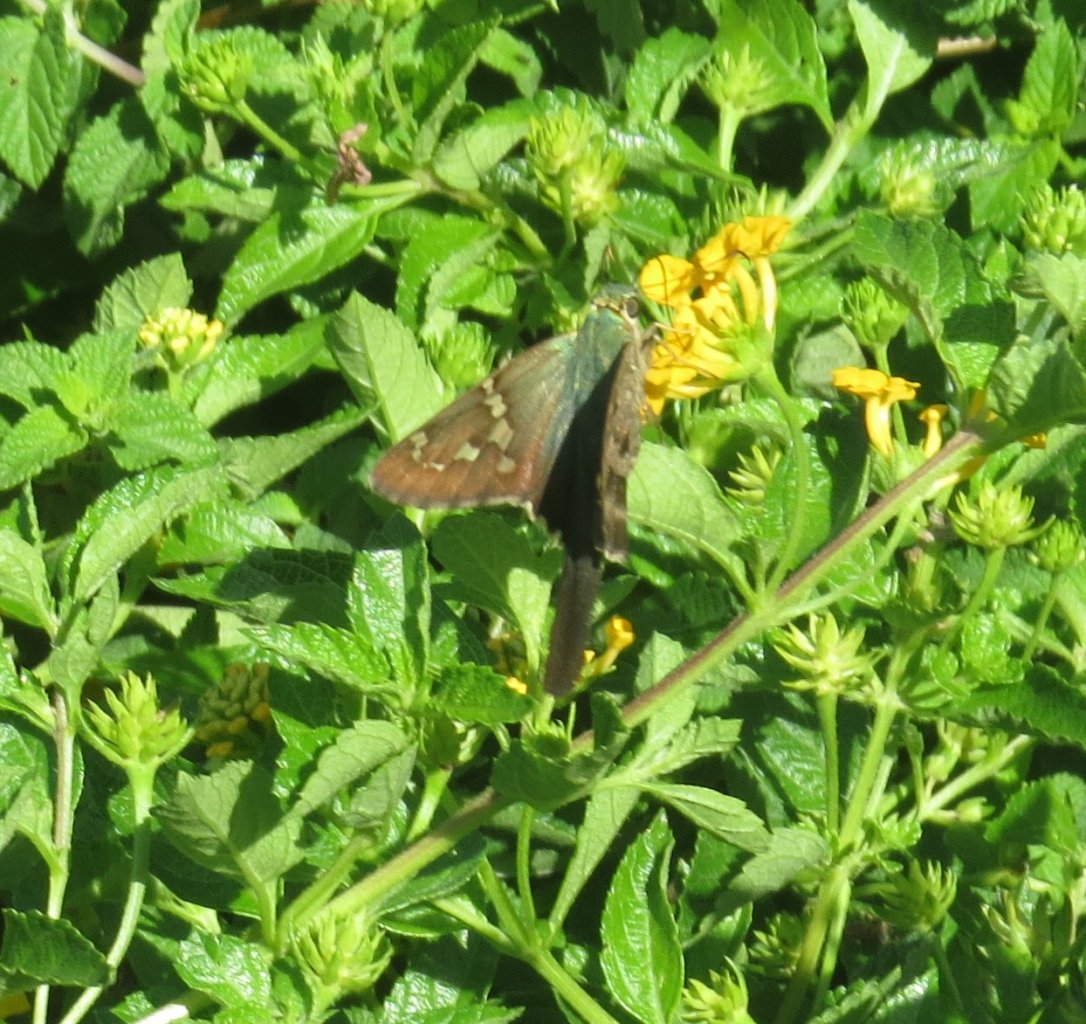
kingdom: Animalia
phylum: Arthropoda
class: Insecta
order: Lepidoptera
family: Hesperiidae
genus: Urbanus
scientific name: Urbanus proteus
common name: Long-tailed Skipper
